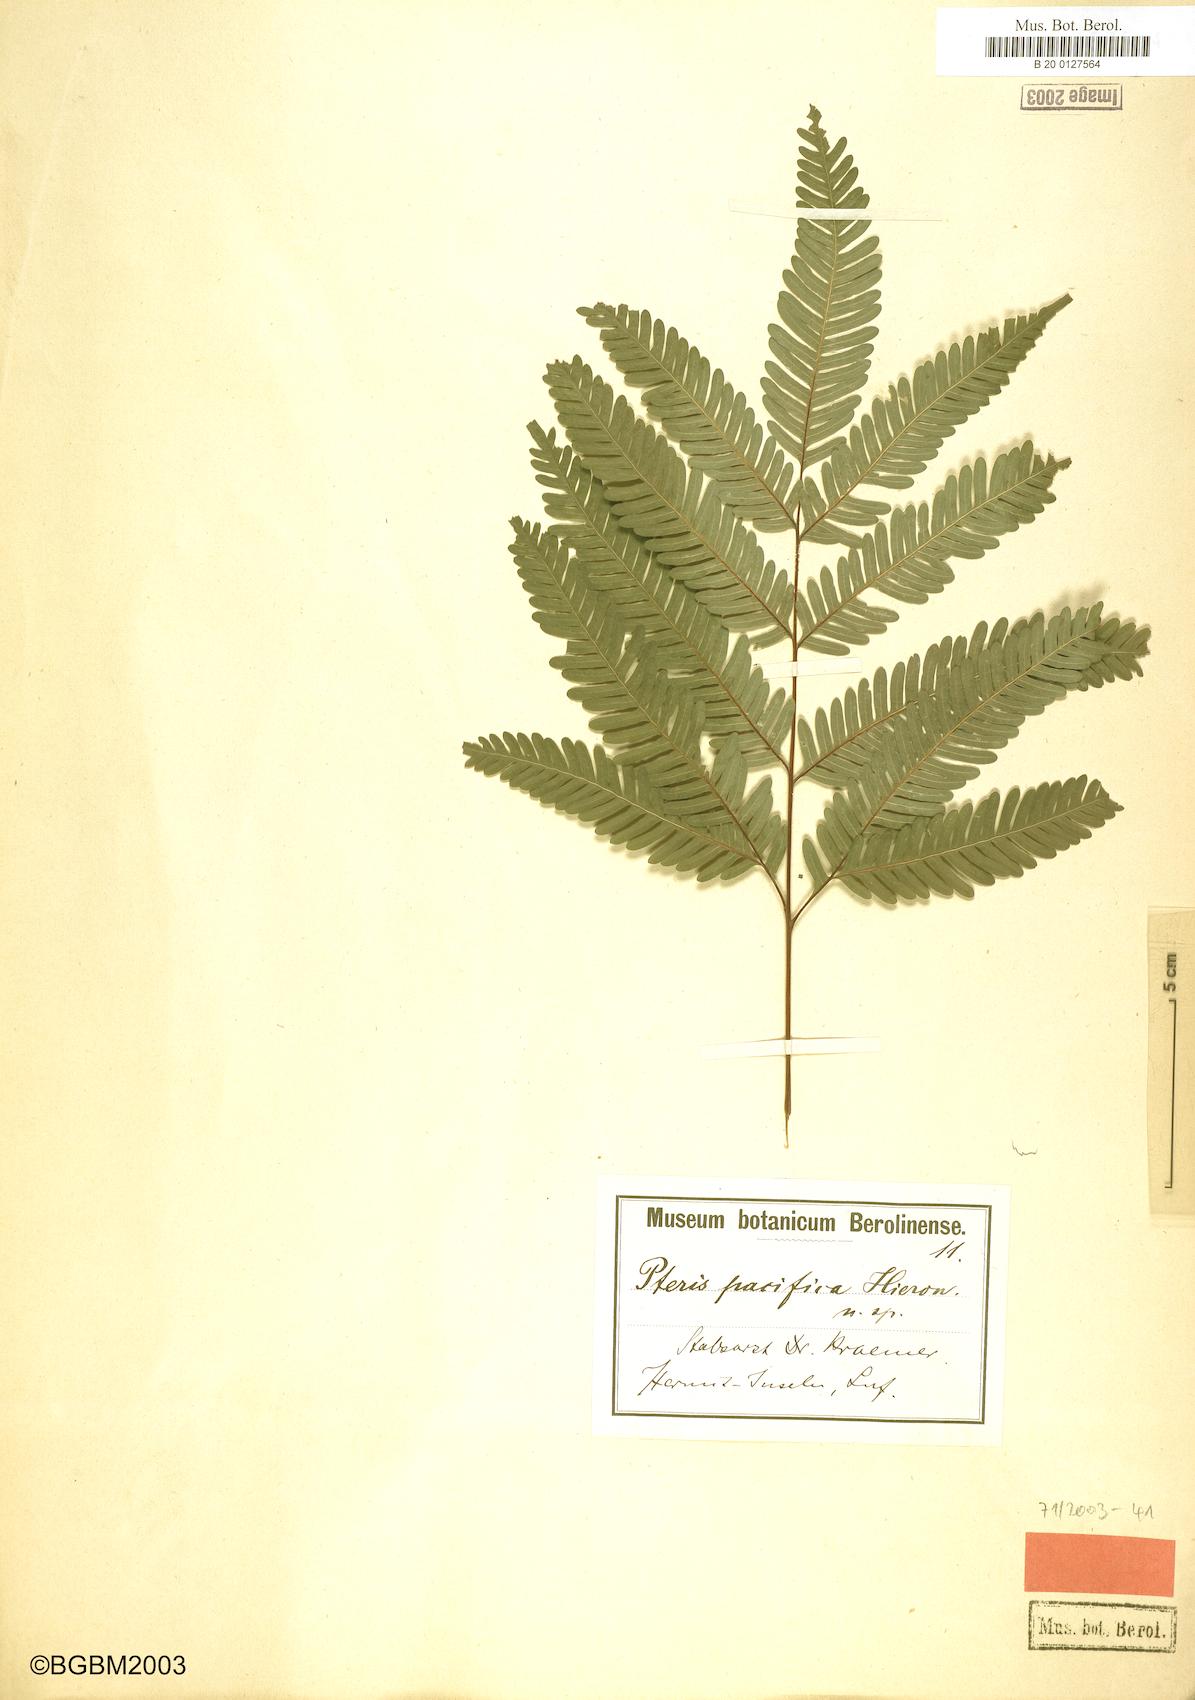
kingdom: Plantae
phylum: Tracheophyta
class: Polypodiopsida
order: Polypodiales
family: Pteridaceae
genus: Pteris
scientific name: Pteris biaurita
